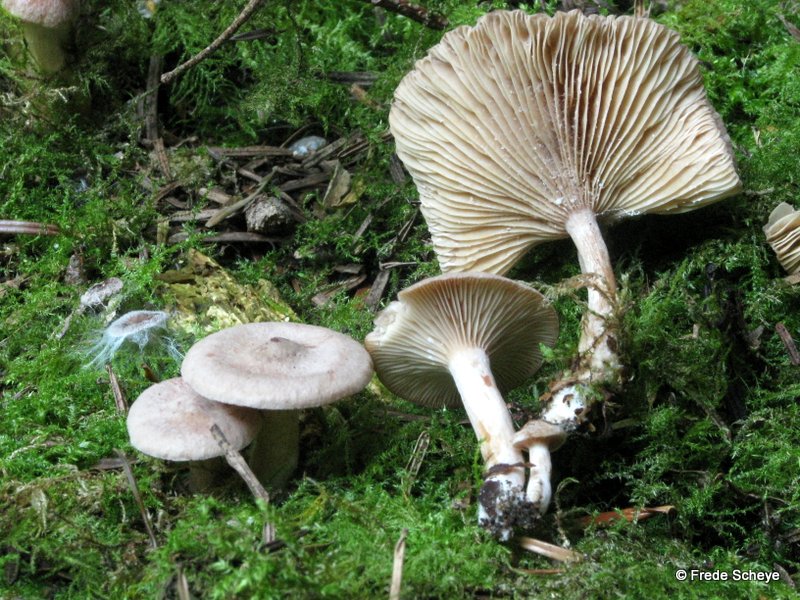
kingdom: Fungi
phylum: Basidiomycota
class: Agaricomycetes
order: Russulales
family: Russulaceae
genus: Lactarius
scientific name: Lactarius glyciosmus
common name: kokos-mælkehat
